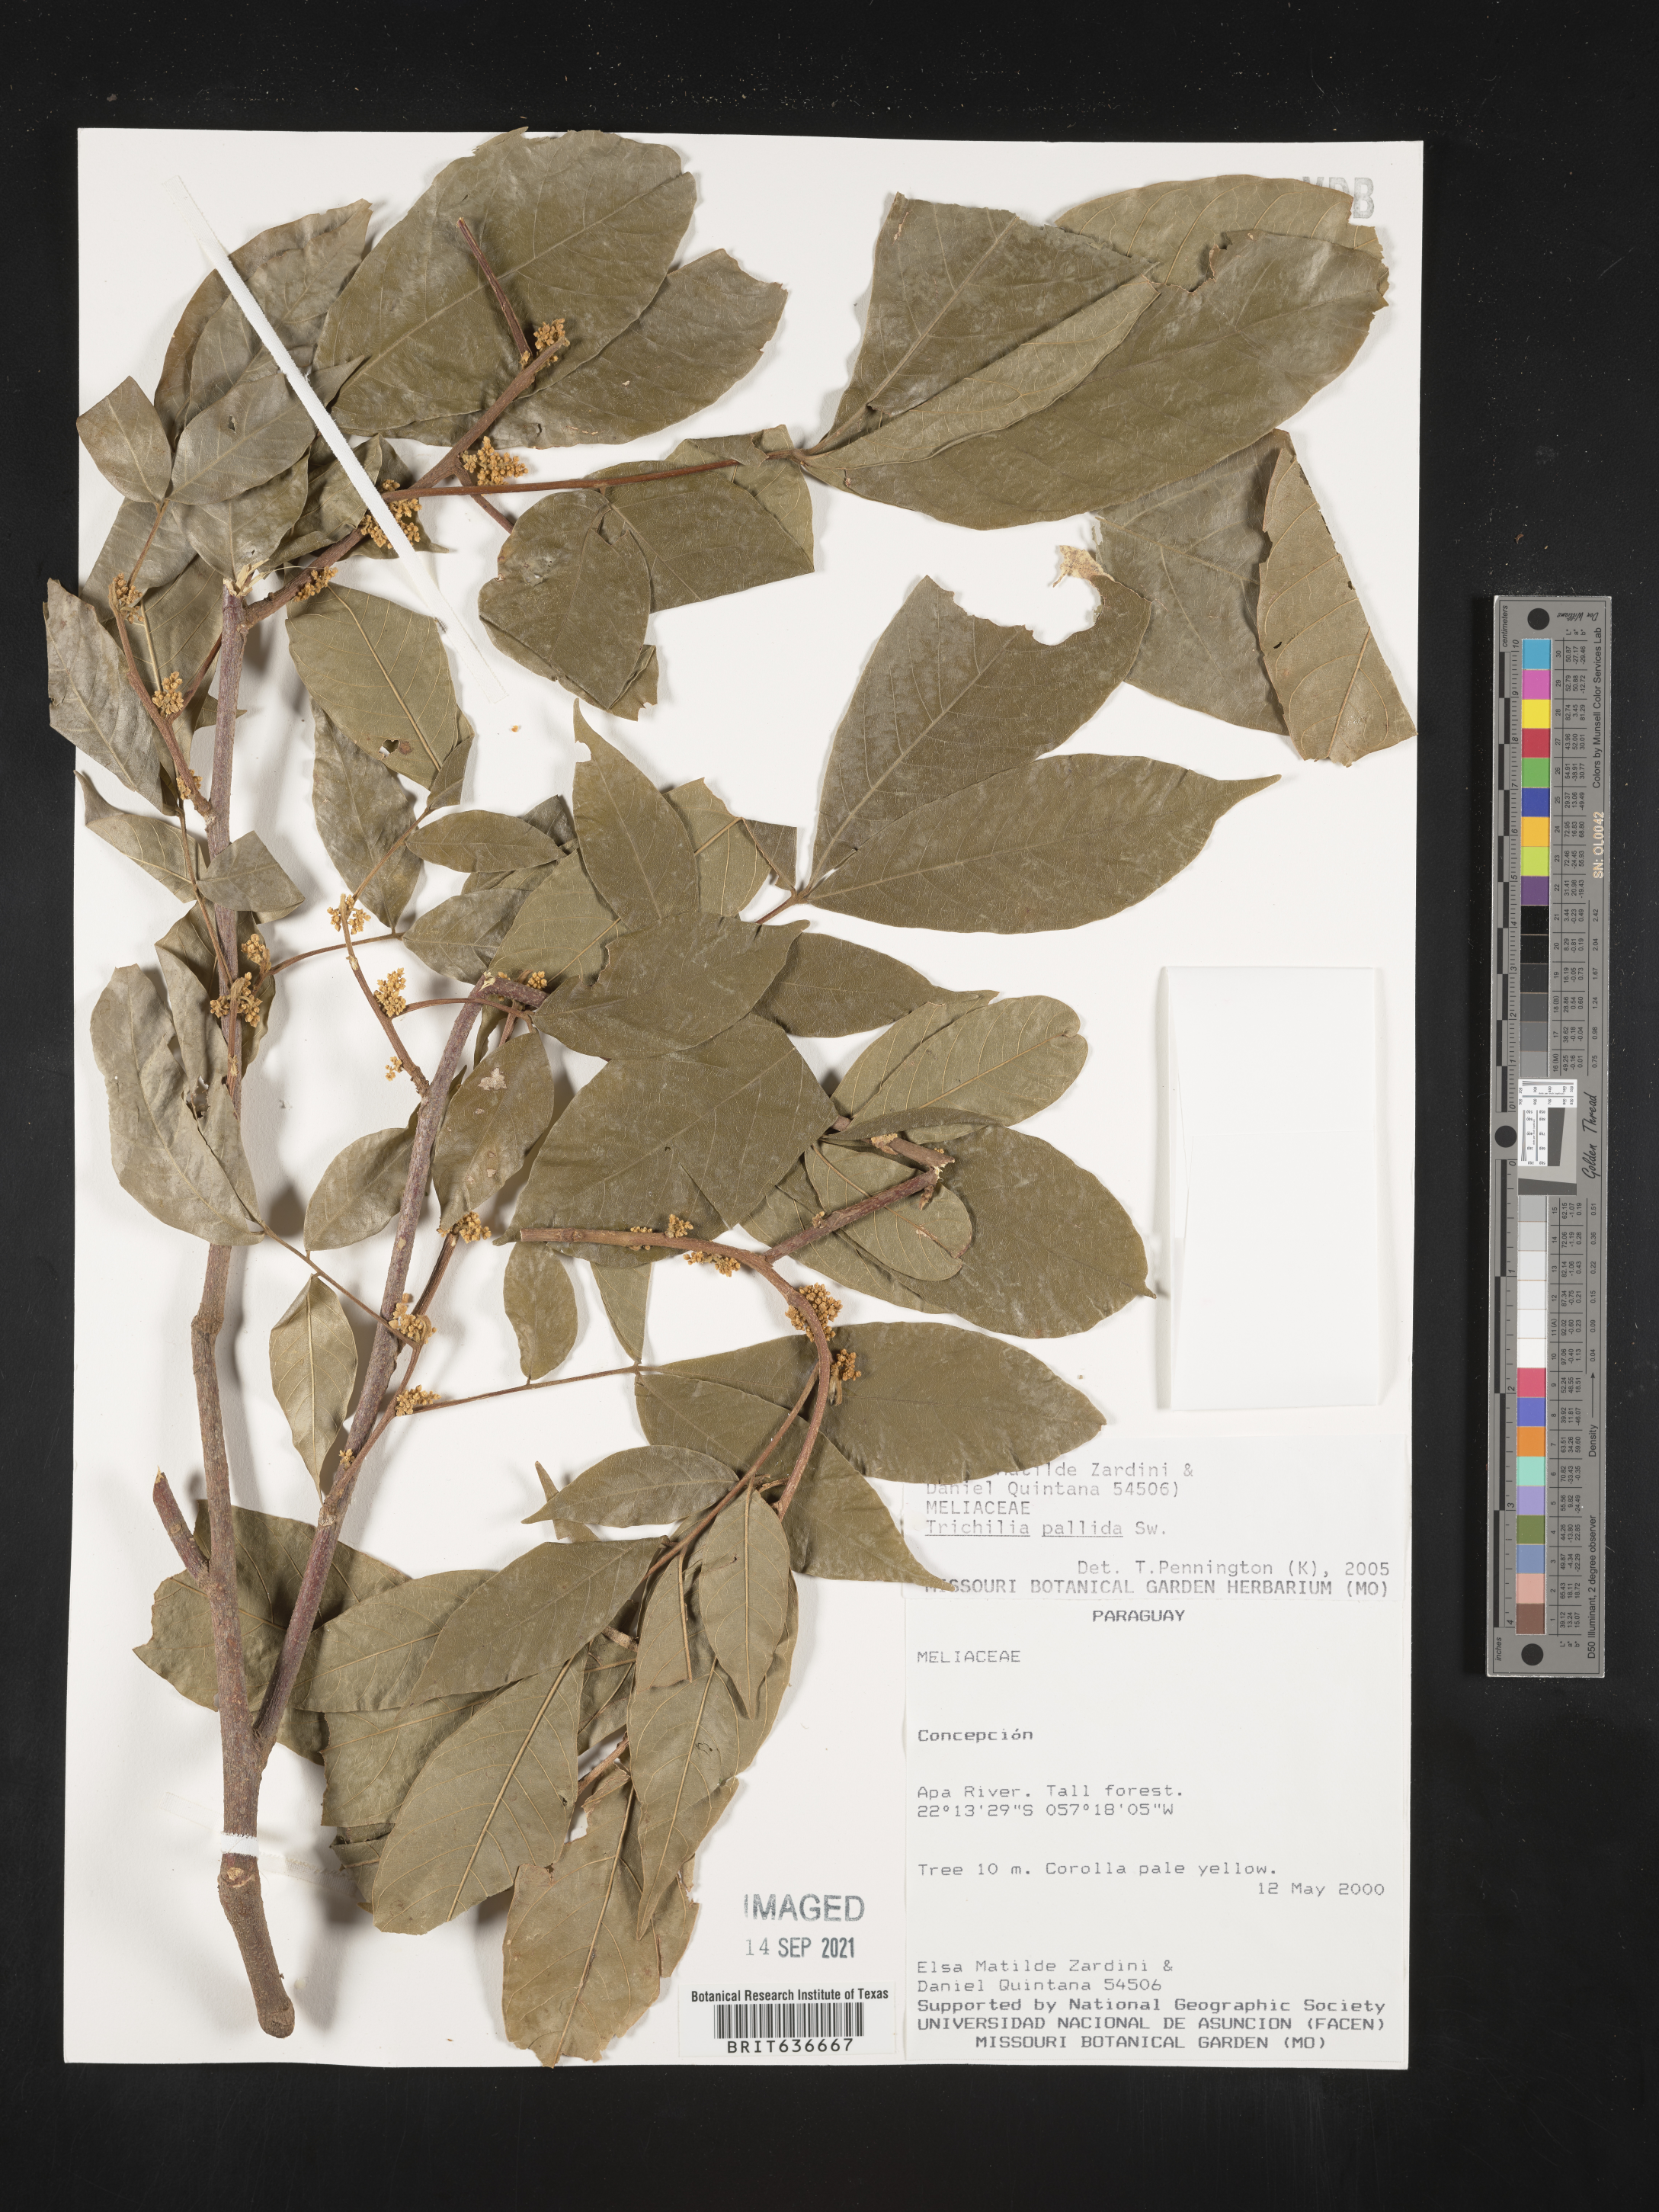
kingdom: Plantae
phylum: Tracheophyta
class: Magnoliopsida
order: Sapindales
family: Meliaceae
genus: Trichilia
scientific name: Trichilia
